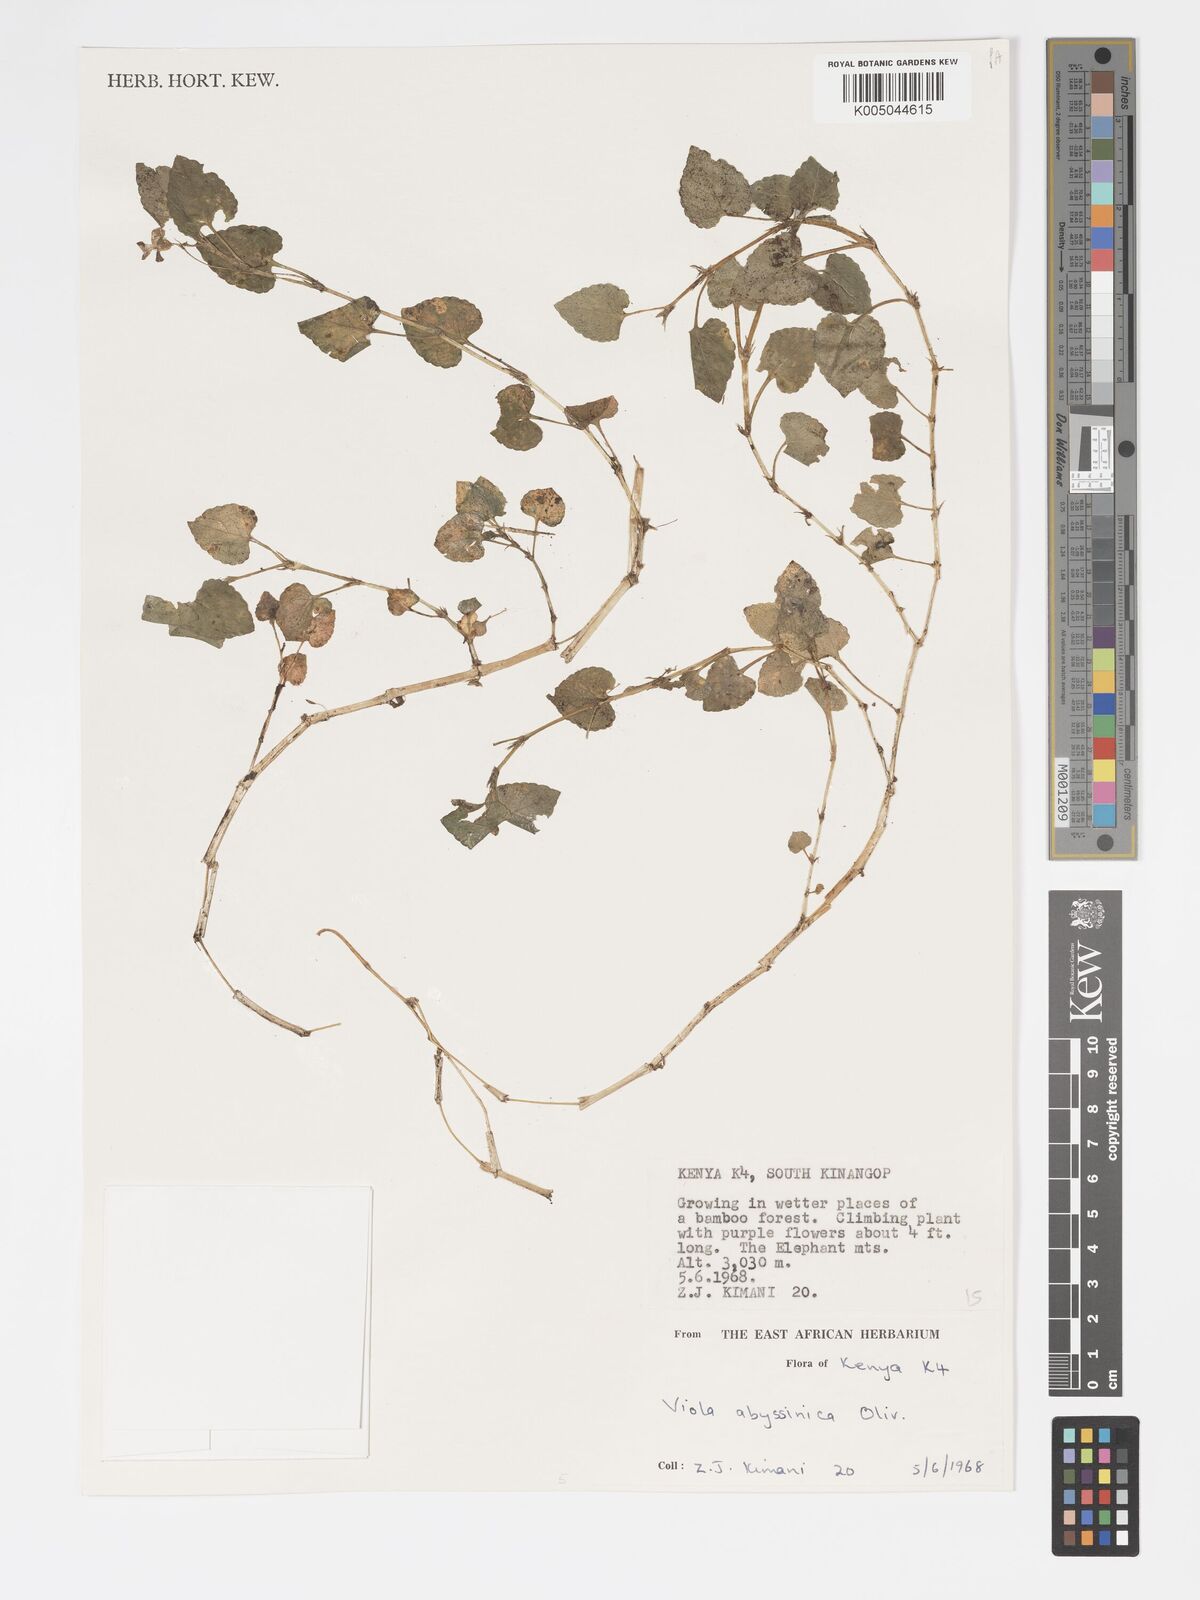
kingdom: Plantae
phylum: Tracheophyta
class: Magnoliopsida
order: Malpighiales
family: Violaceae
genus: Viola
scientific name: Viola abyssinica
